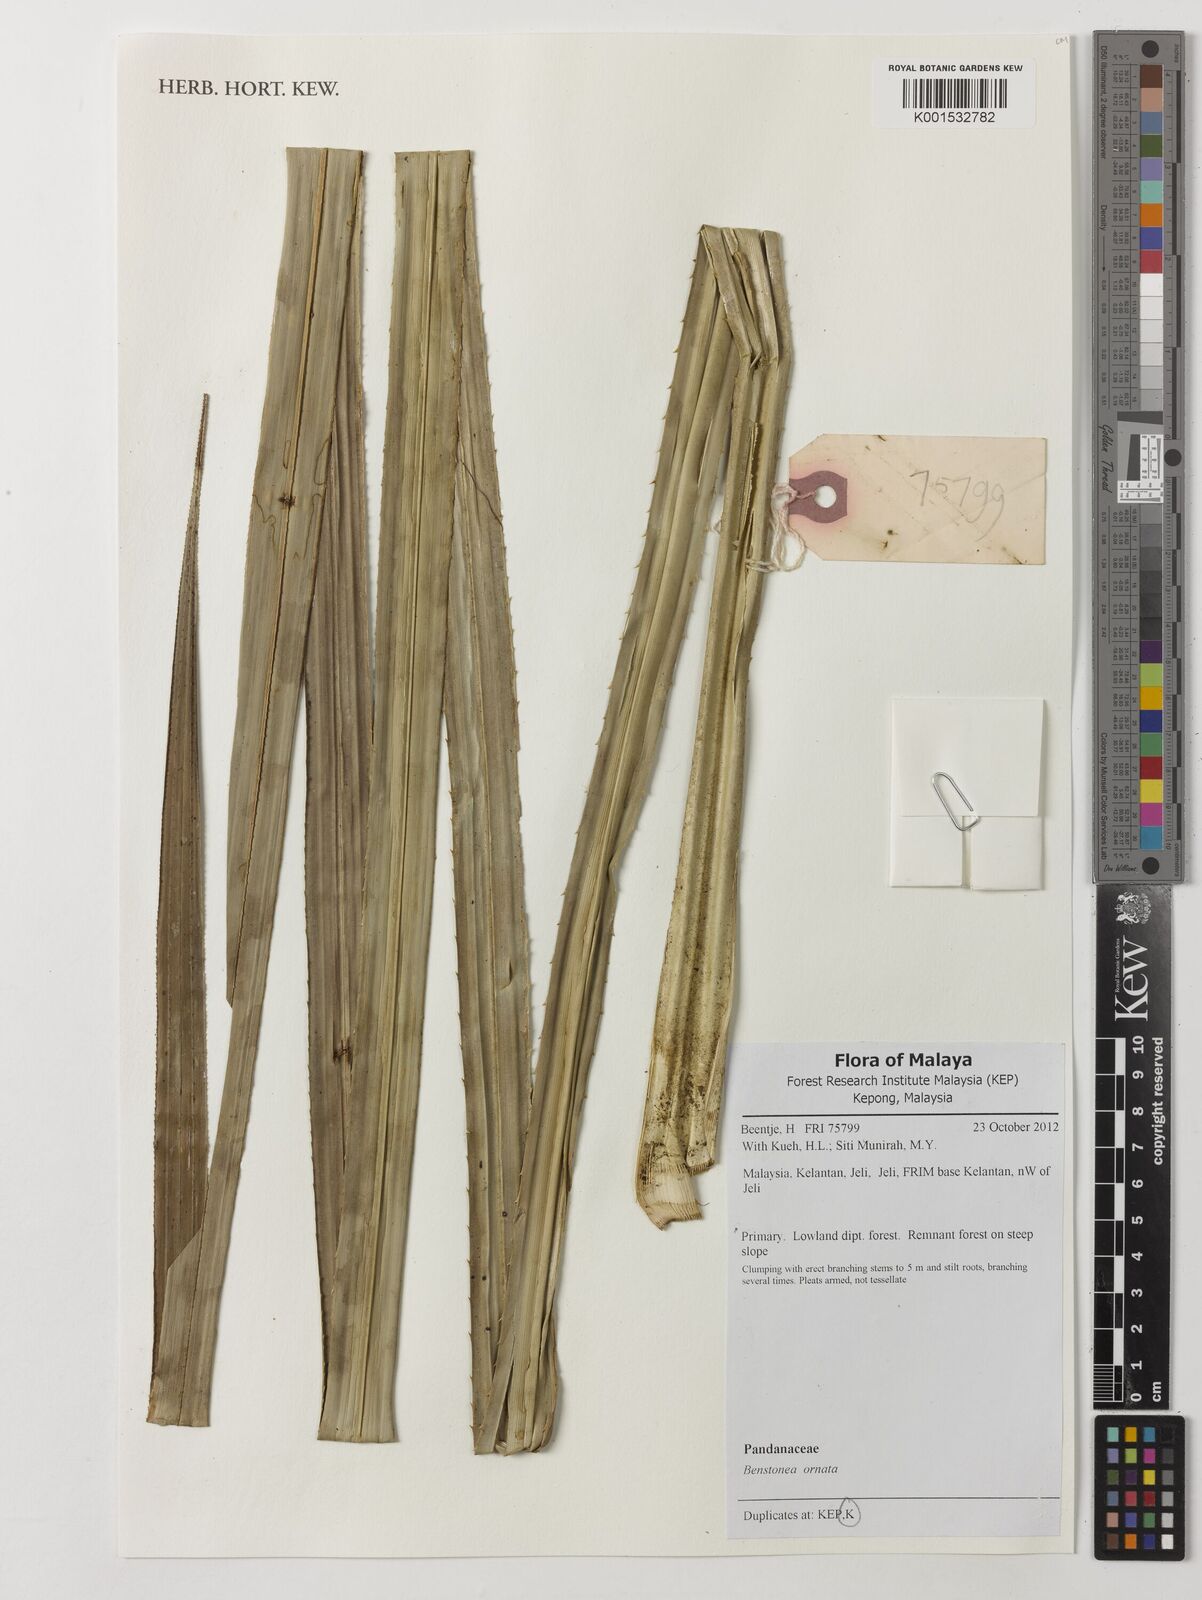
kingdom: Plantae
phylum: Tracheophyta
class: Liliopsida
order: Pandanales
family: Pandanaceae
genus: Pandanus
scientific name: Pandanus ornatus
